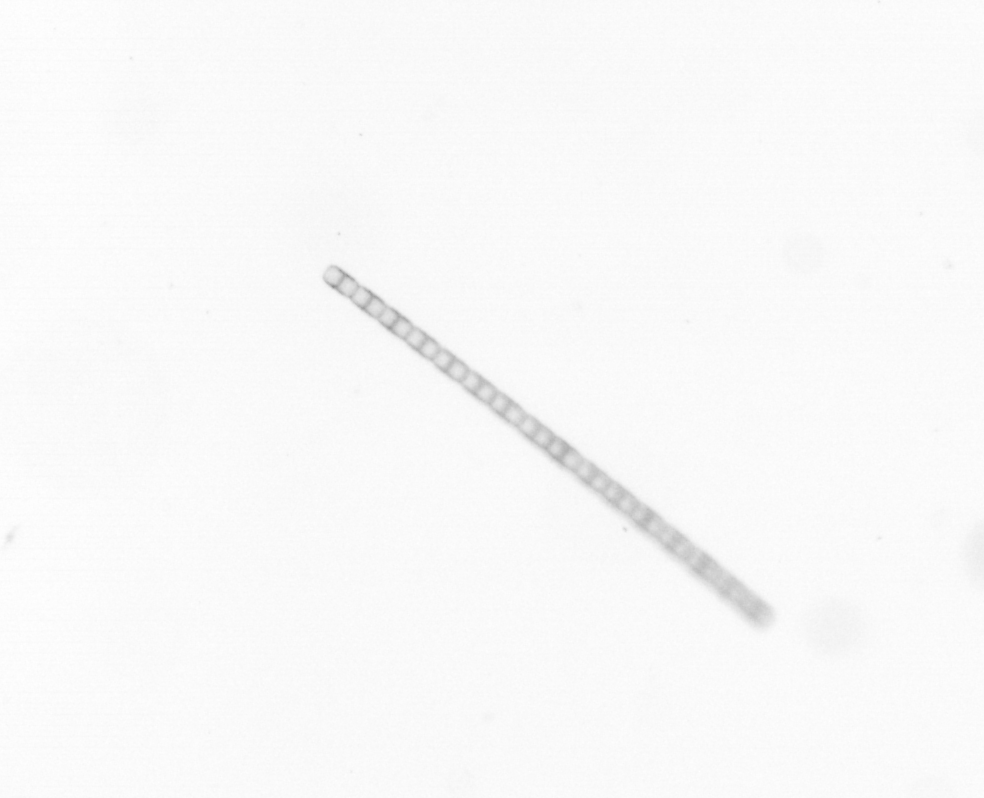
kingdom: Chromista
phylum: Ochrophyta
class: Bacillariophyceae
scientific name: Bacillariophyceae
